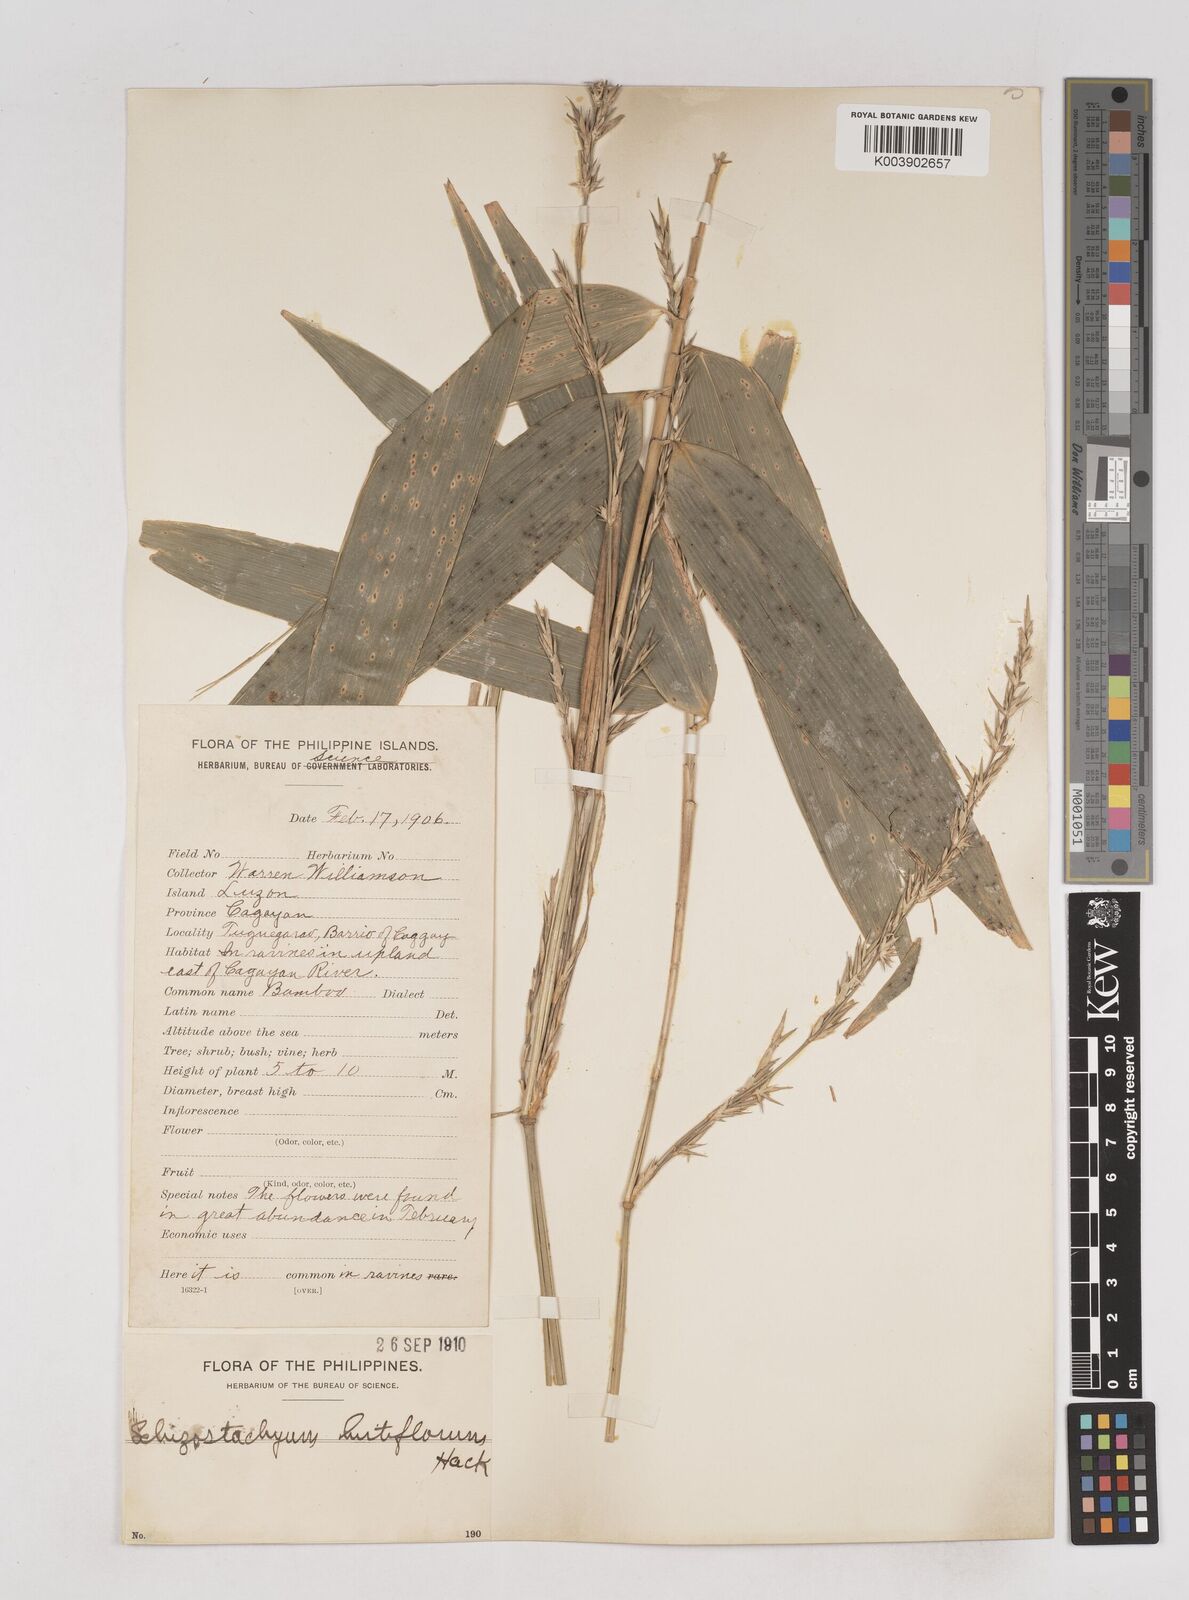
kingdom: Plantae
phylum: Tracheophyta
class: Liliopsida
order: Poales
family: Poaceae
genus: Schizostachyum
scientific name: Schizostachyum lumampao
